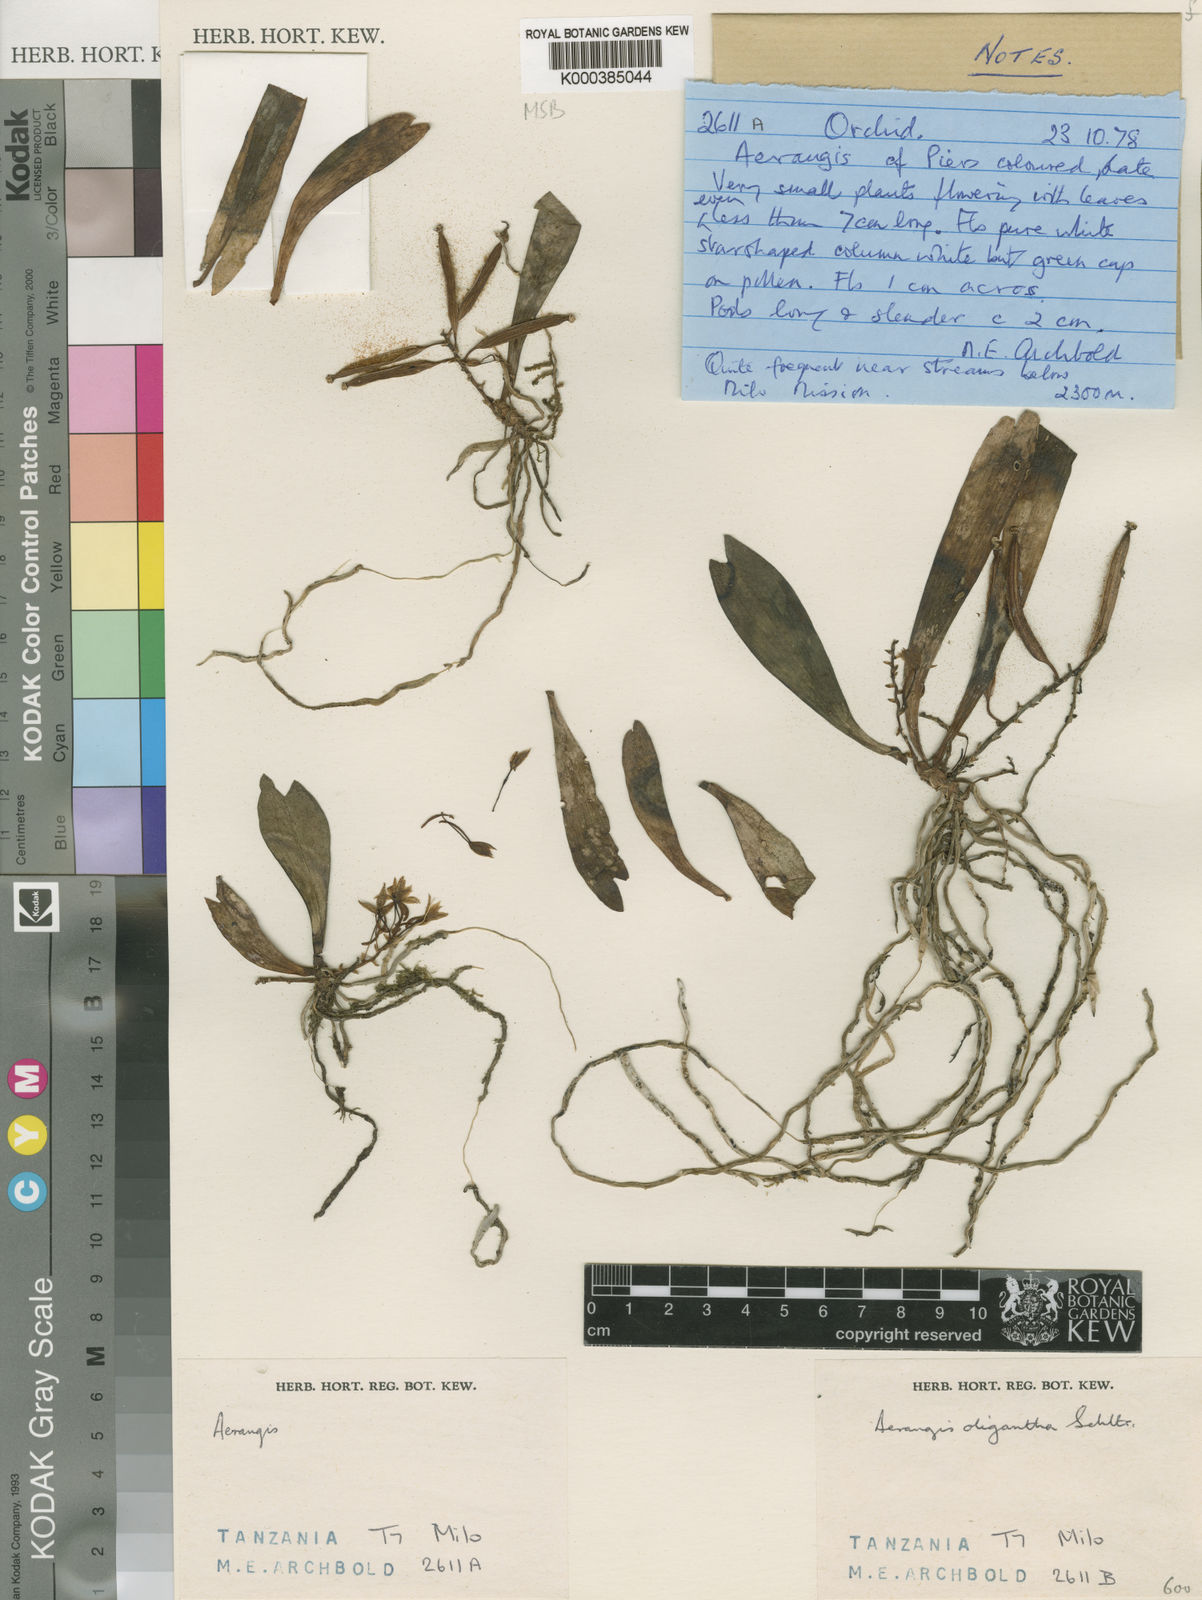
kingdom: Plantae
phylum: Tracheophyta
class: Liliopsida
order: Asparagales
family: Orchidaceae
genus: Aerangis
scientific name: Aerangis oligantha
